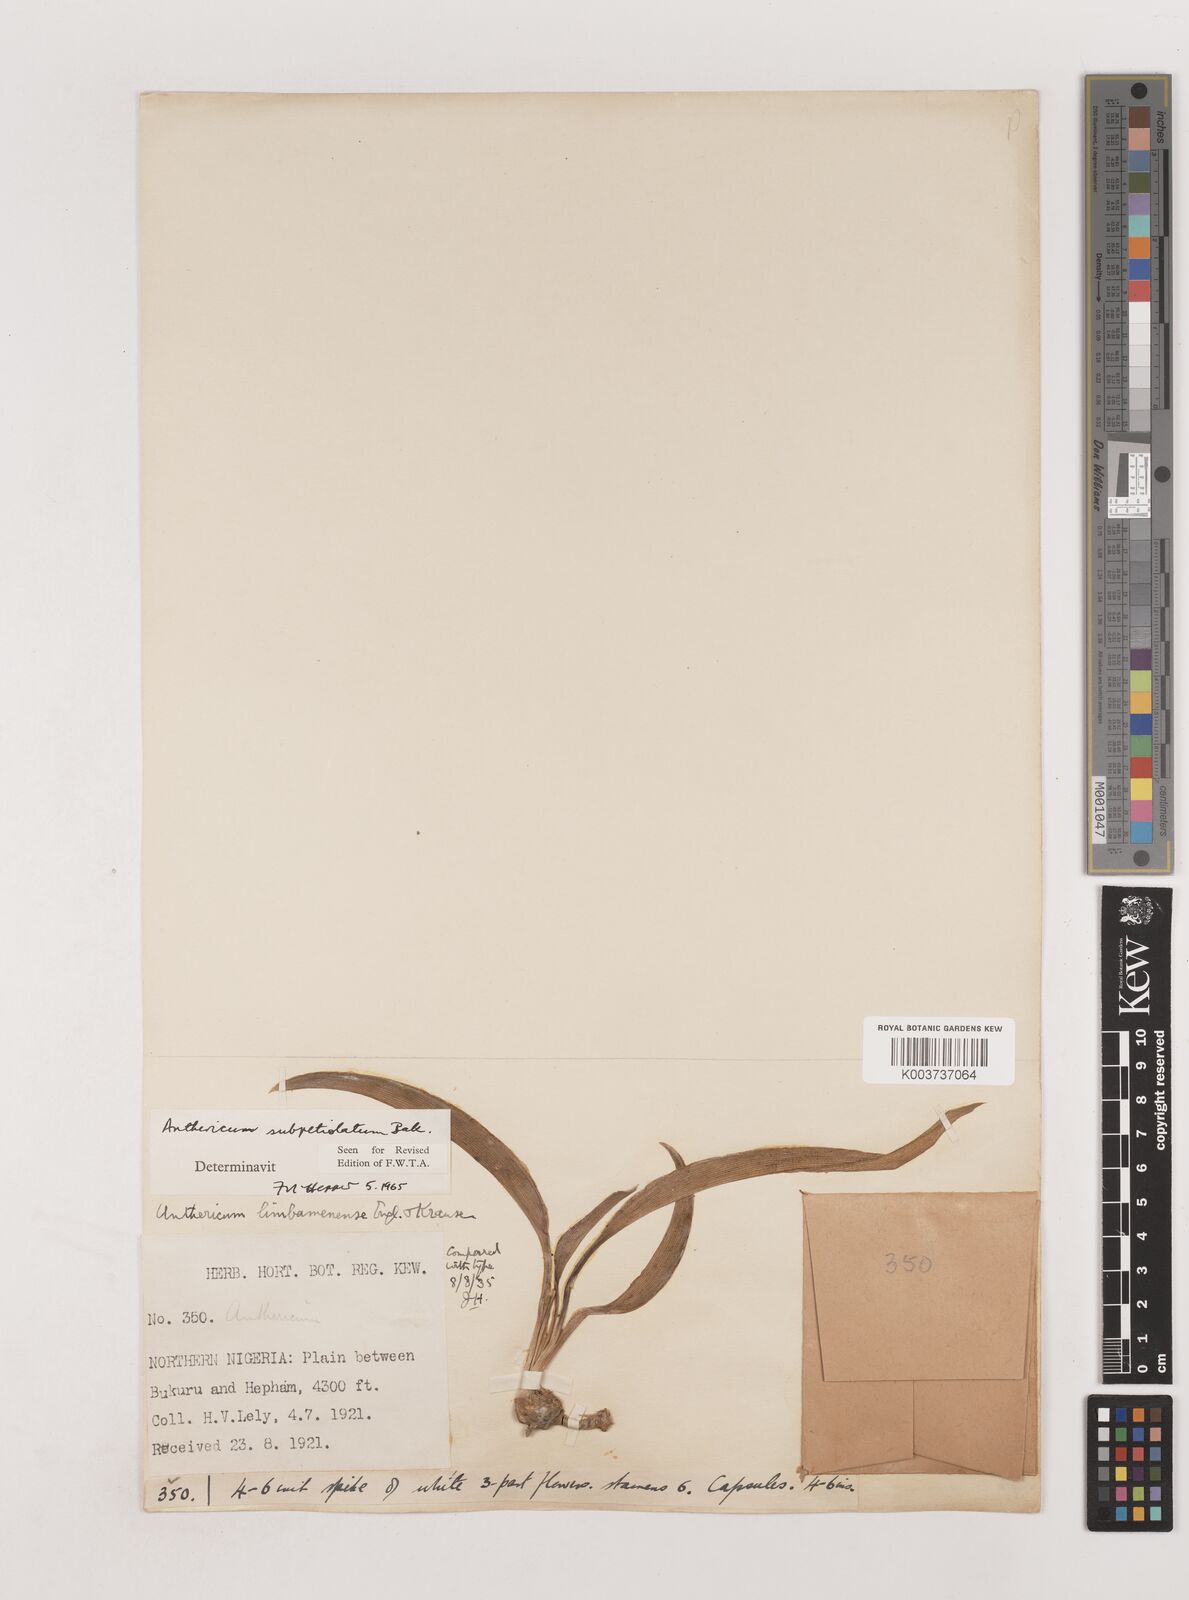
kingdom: Plantae
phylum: Tracheophyta
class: Liliopsida
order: Asparagales
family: Asparagaceae
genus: Chlorophytum
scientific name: Chlorophytum subpetiolatum
